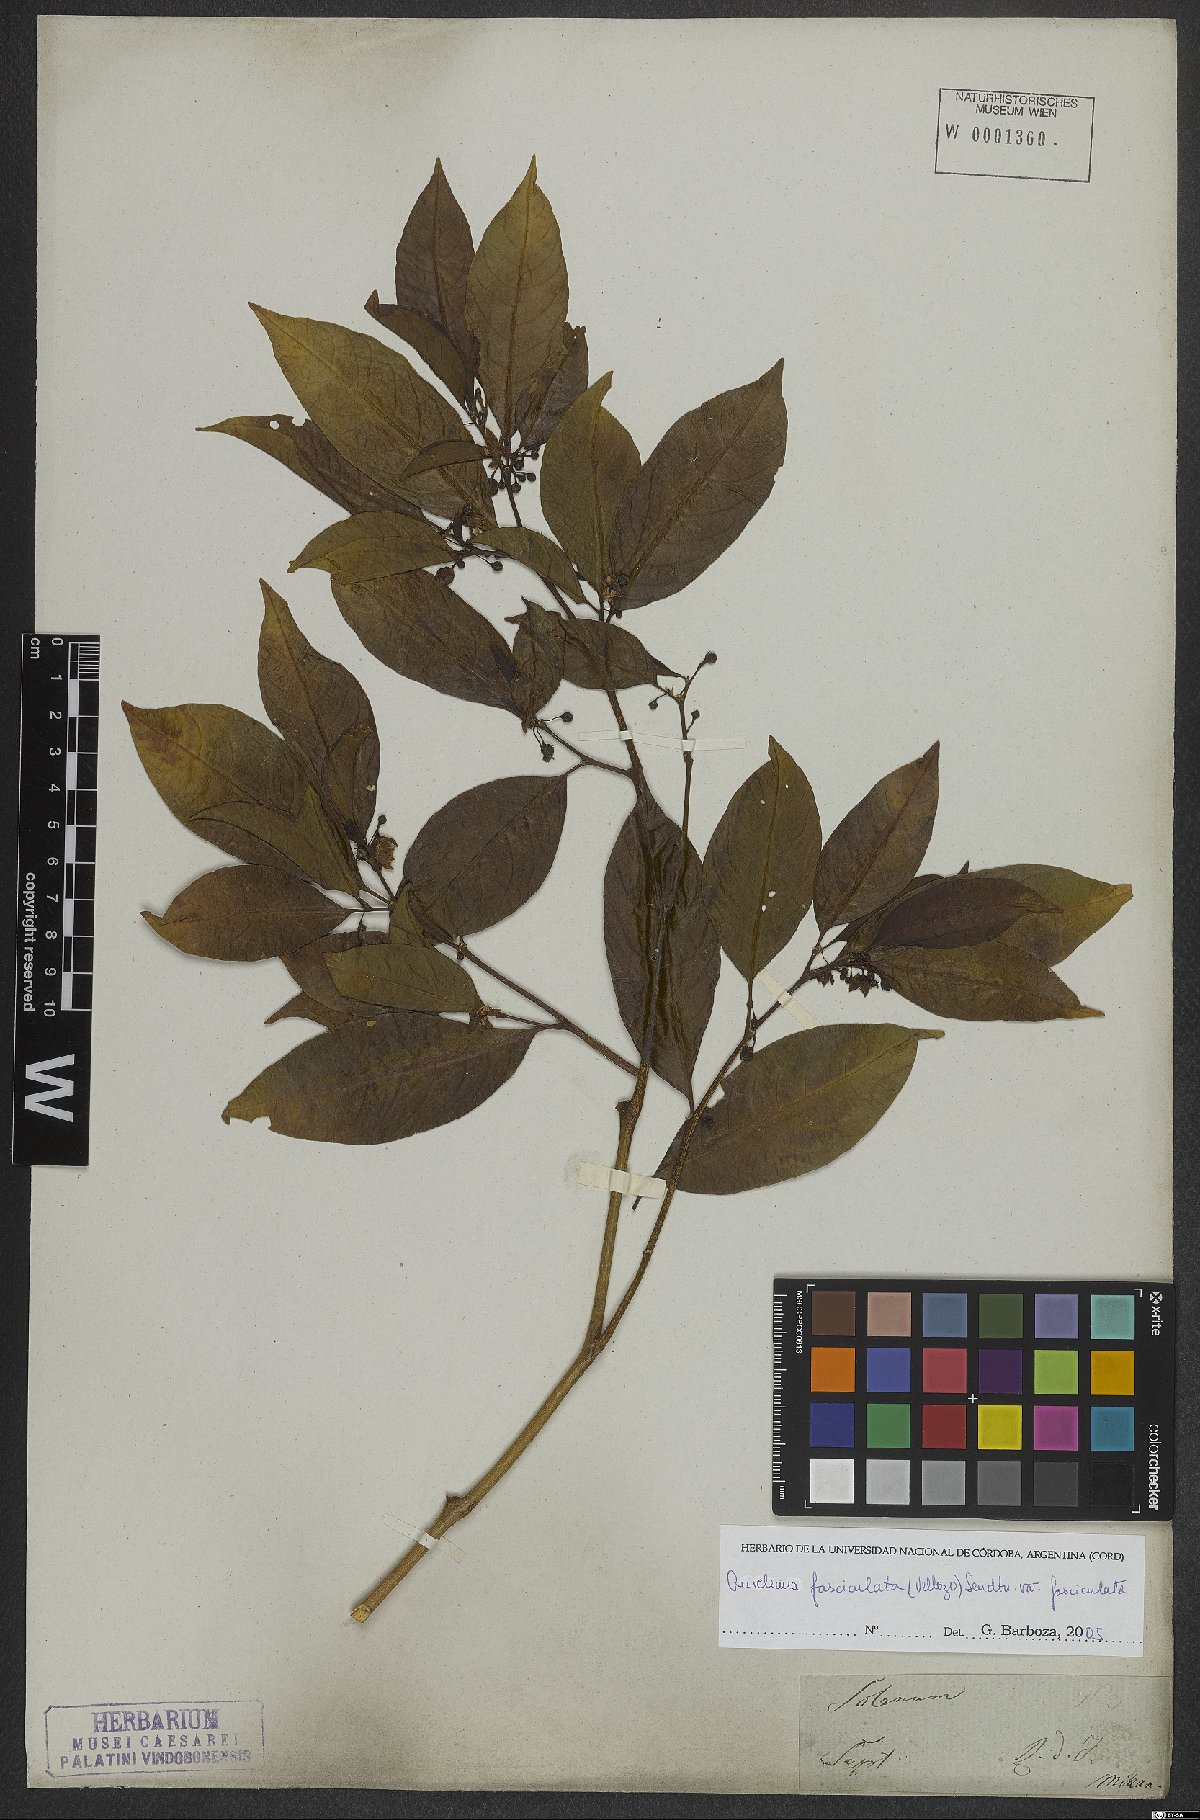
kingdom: Plantae
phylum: Tracheophyta
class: Magnoliopsida
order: Solanales
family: Solanaceae
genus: Athenaea
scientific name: Athenaea fasciculata
